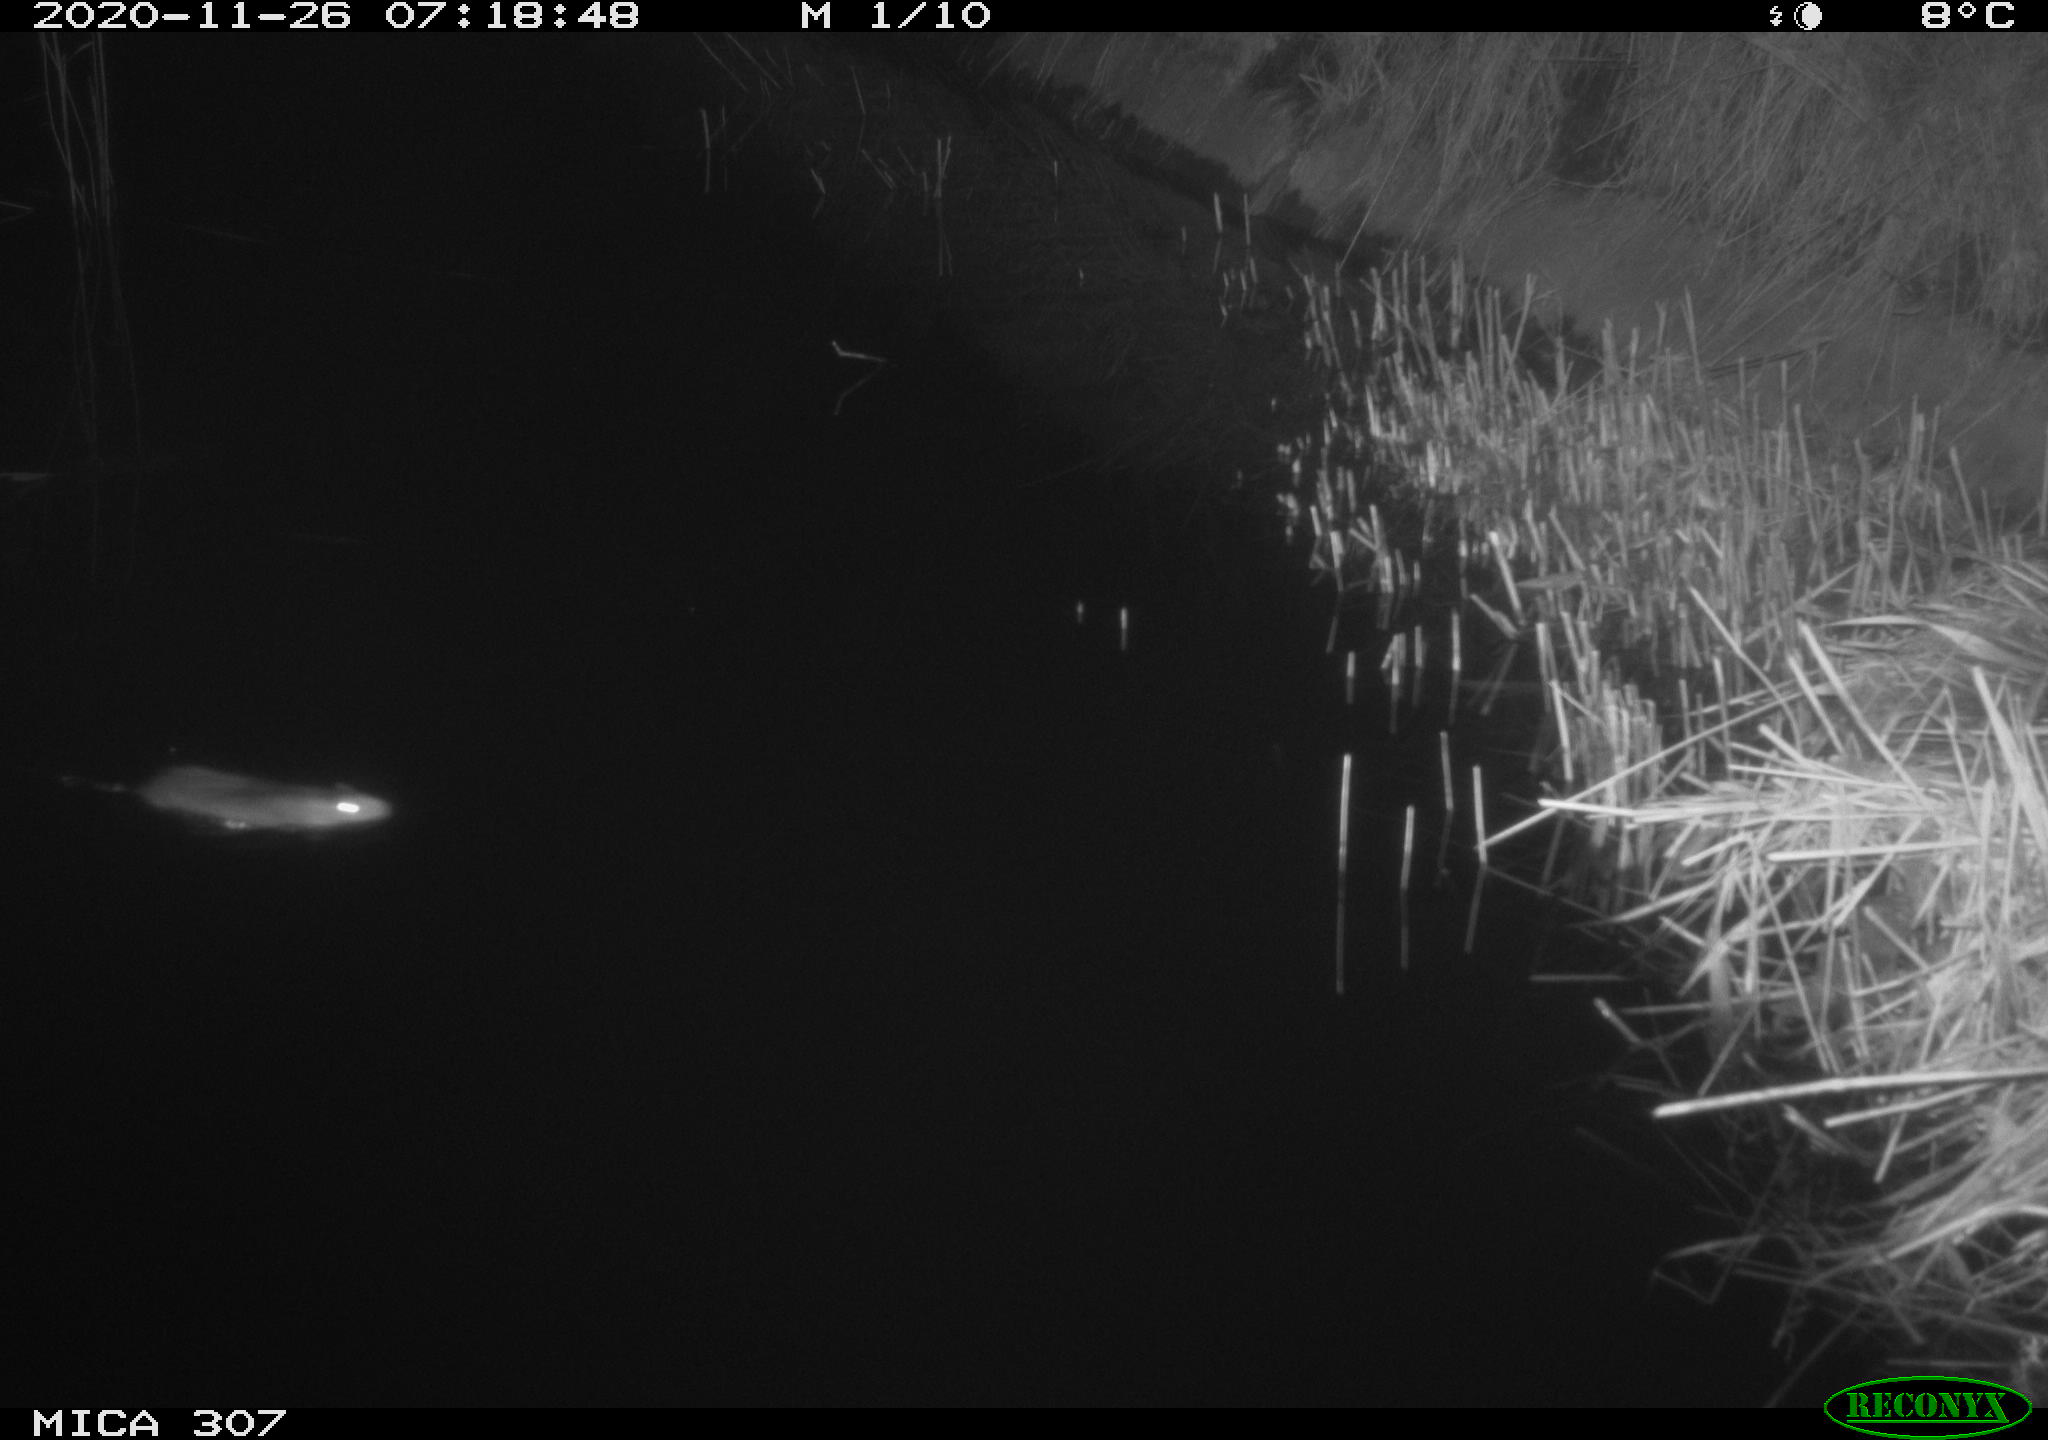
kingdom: Animalia
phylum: Chordata
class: Mammalia
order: Rodentia
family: Muridae
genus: Rattus
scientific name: Rattus norvegicus
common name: Brown rat
